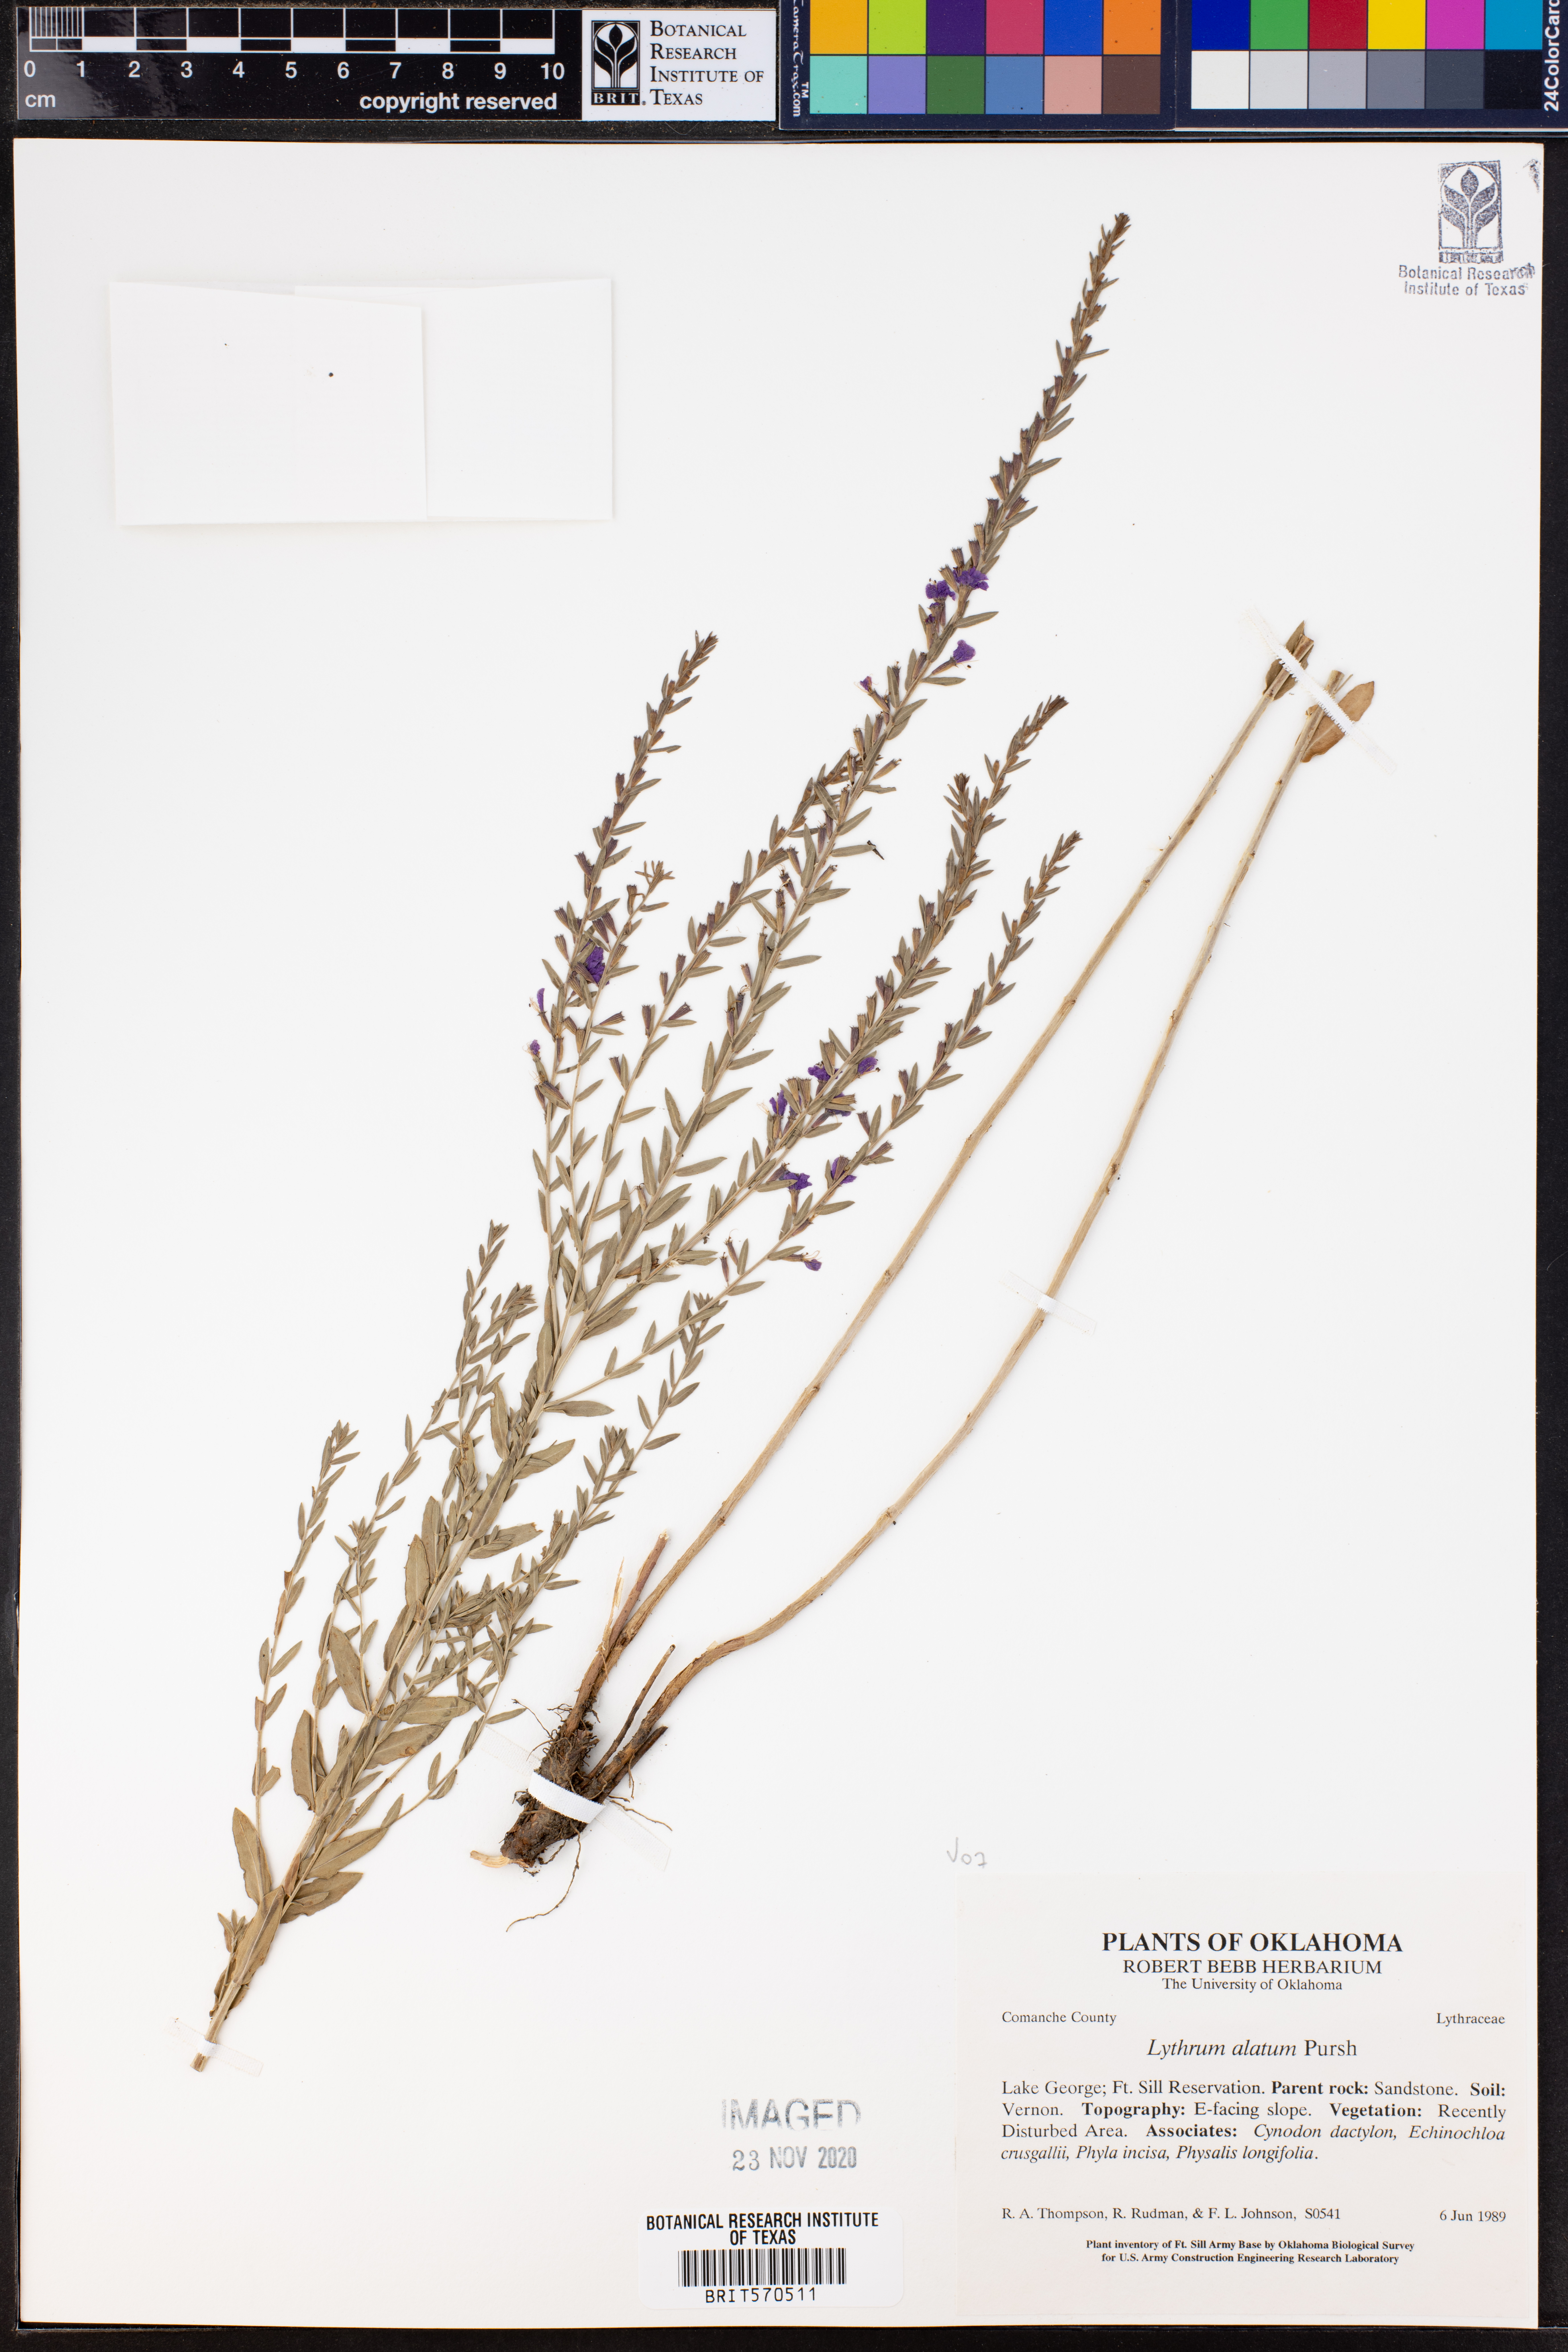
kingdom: Plantae
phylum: Tracheophyta
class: Magnoliopsida
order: Myrtales
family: Lythraceae
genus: Lythrum
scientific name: Lythrum alatum
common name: Winged loosestrife
